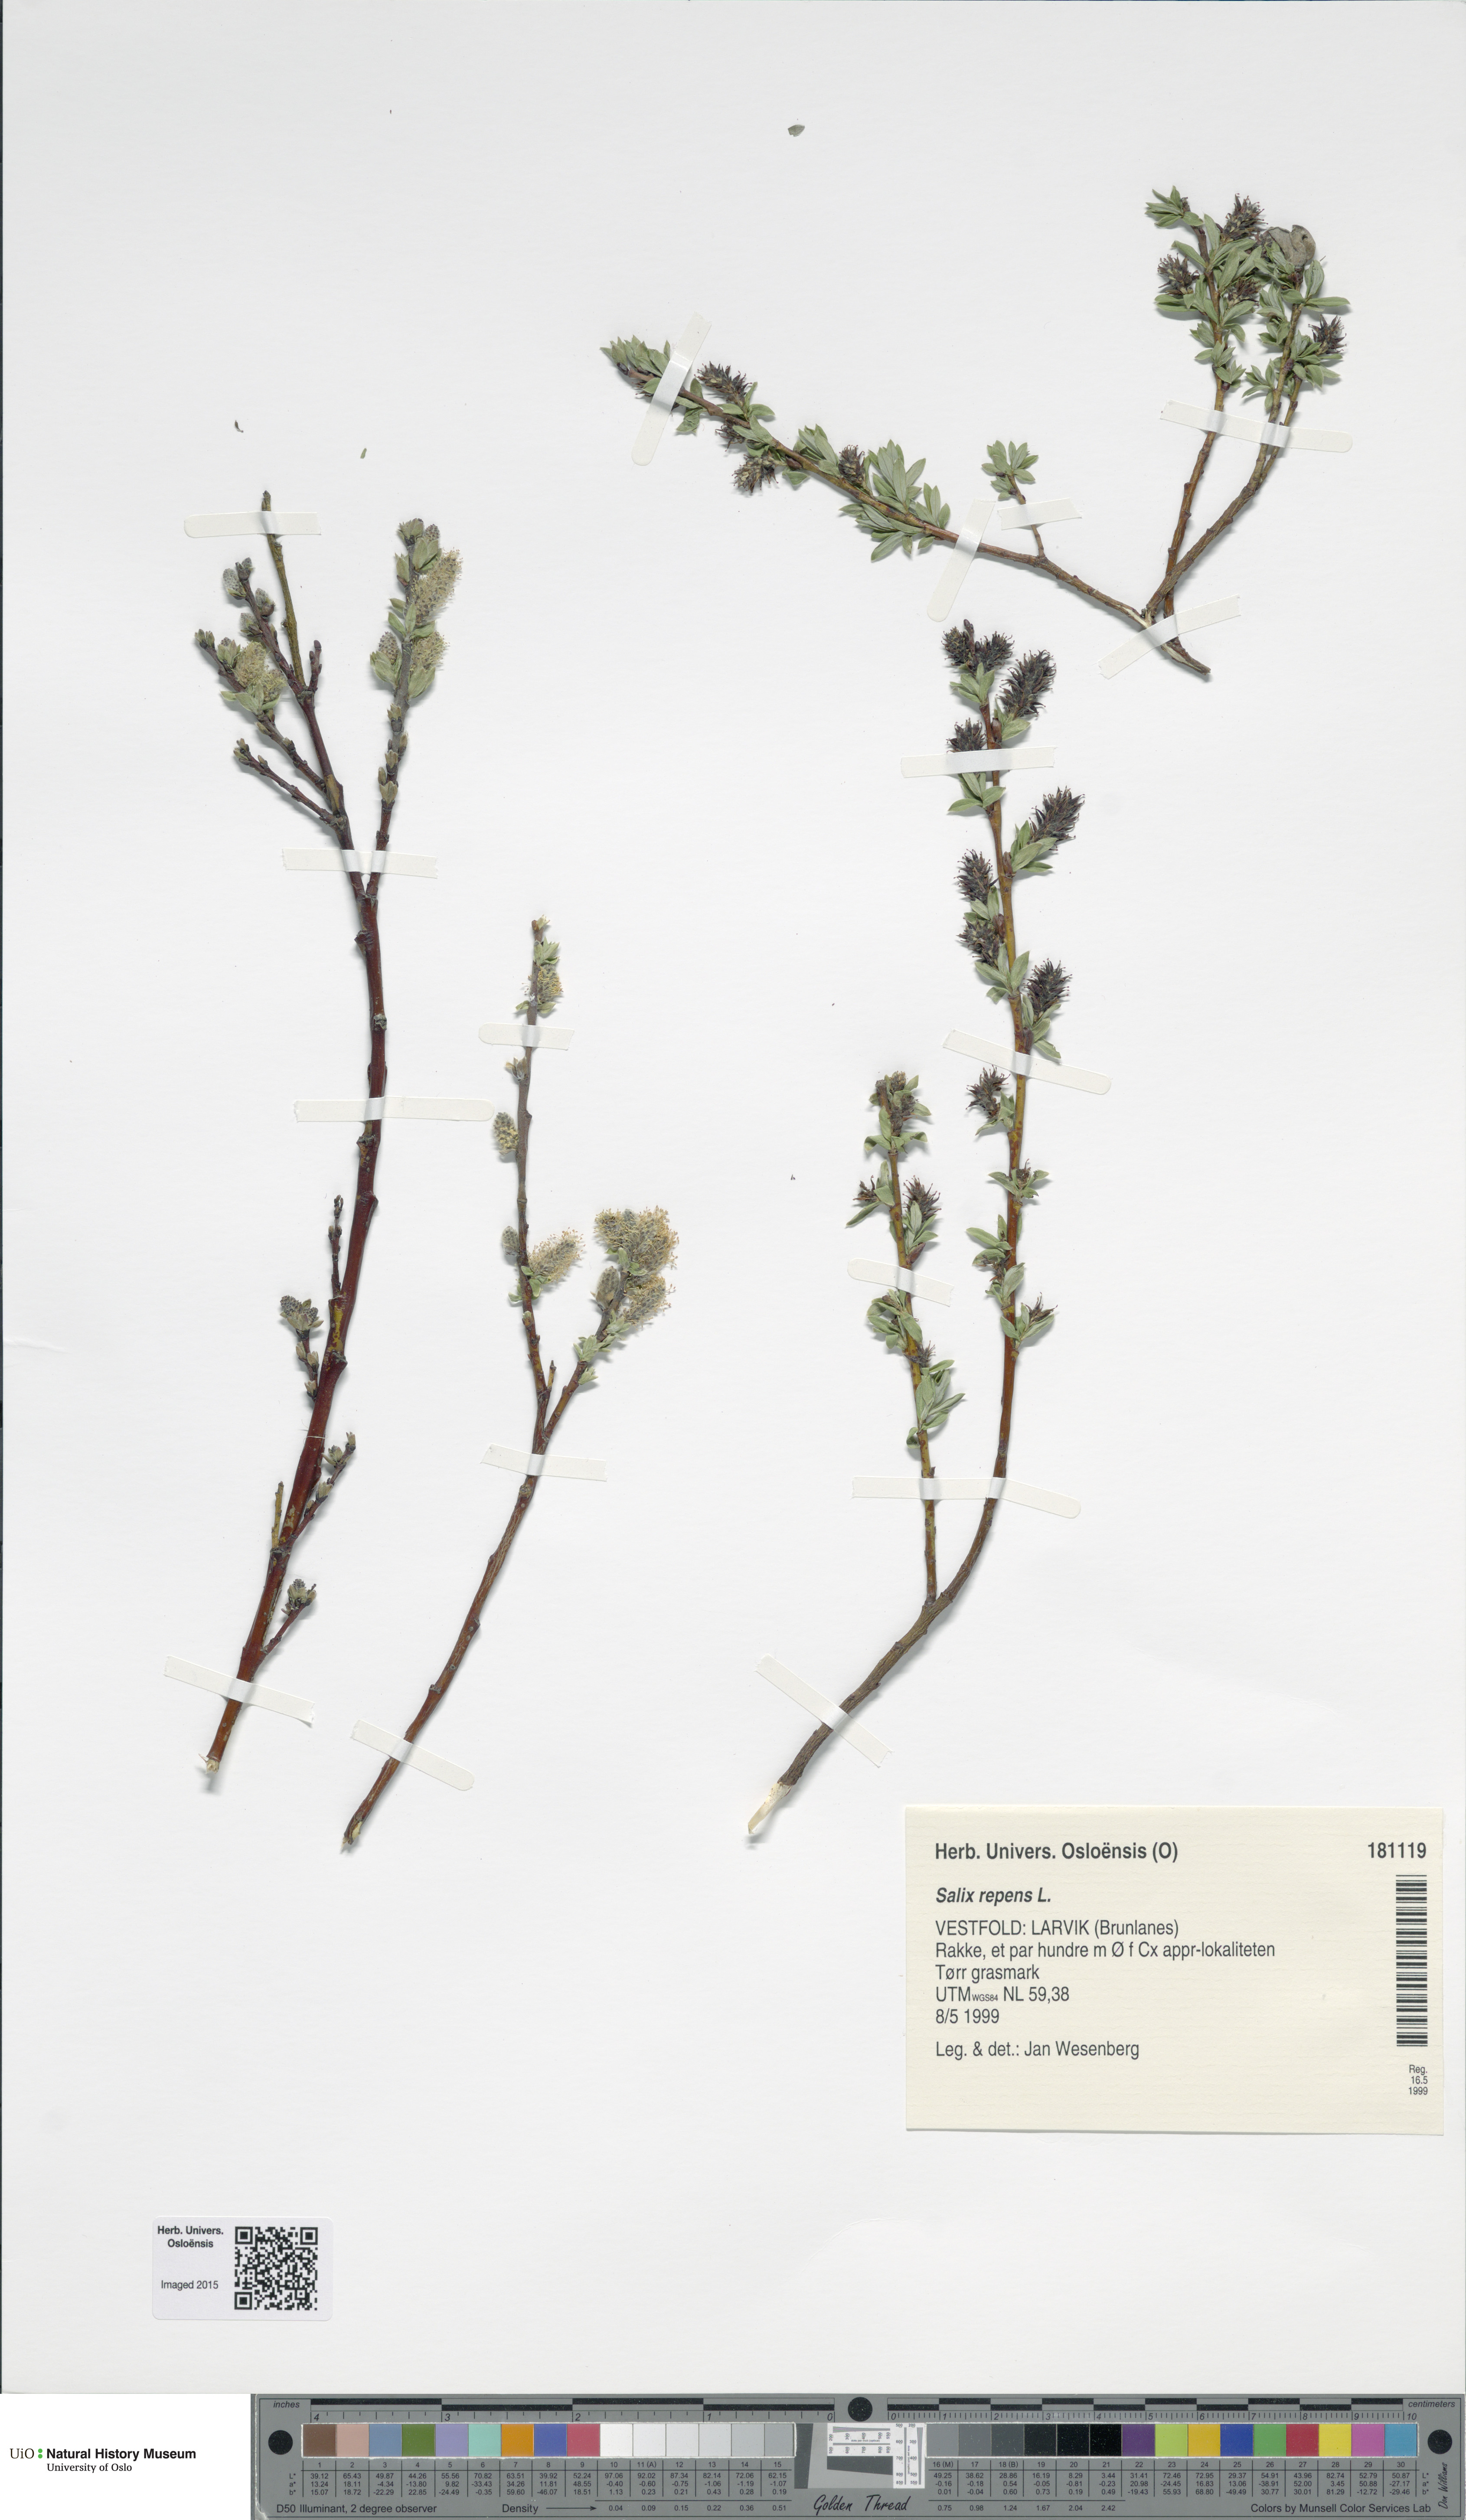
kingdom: Plantae
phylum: Tracheophyta
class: Magnoliopsida
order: Malpighiales
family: Salicaceae
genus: Salix
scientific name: Salix repens
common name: Creeping willow
